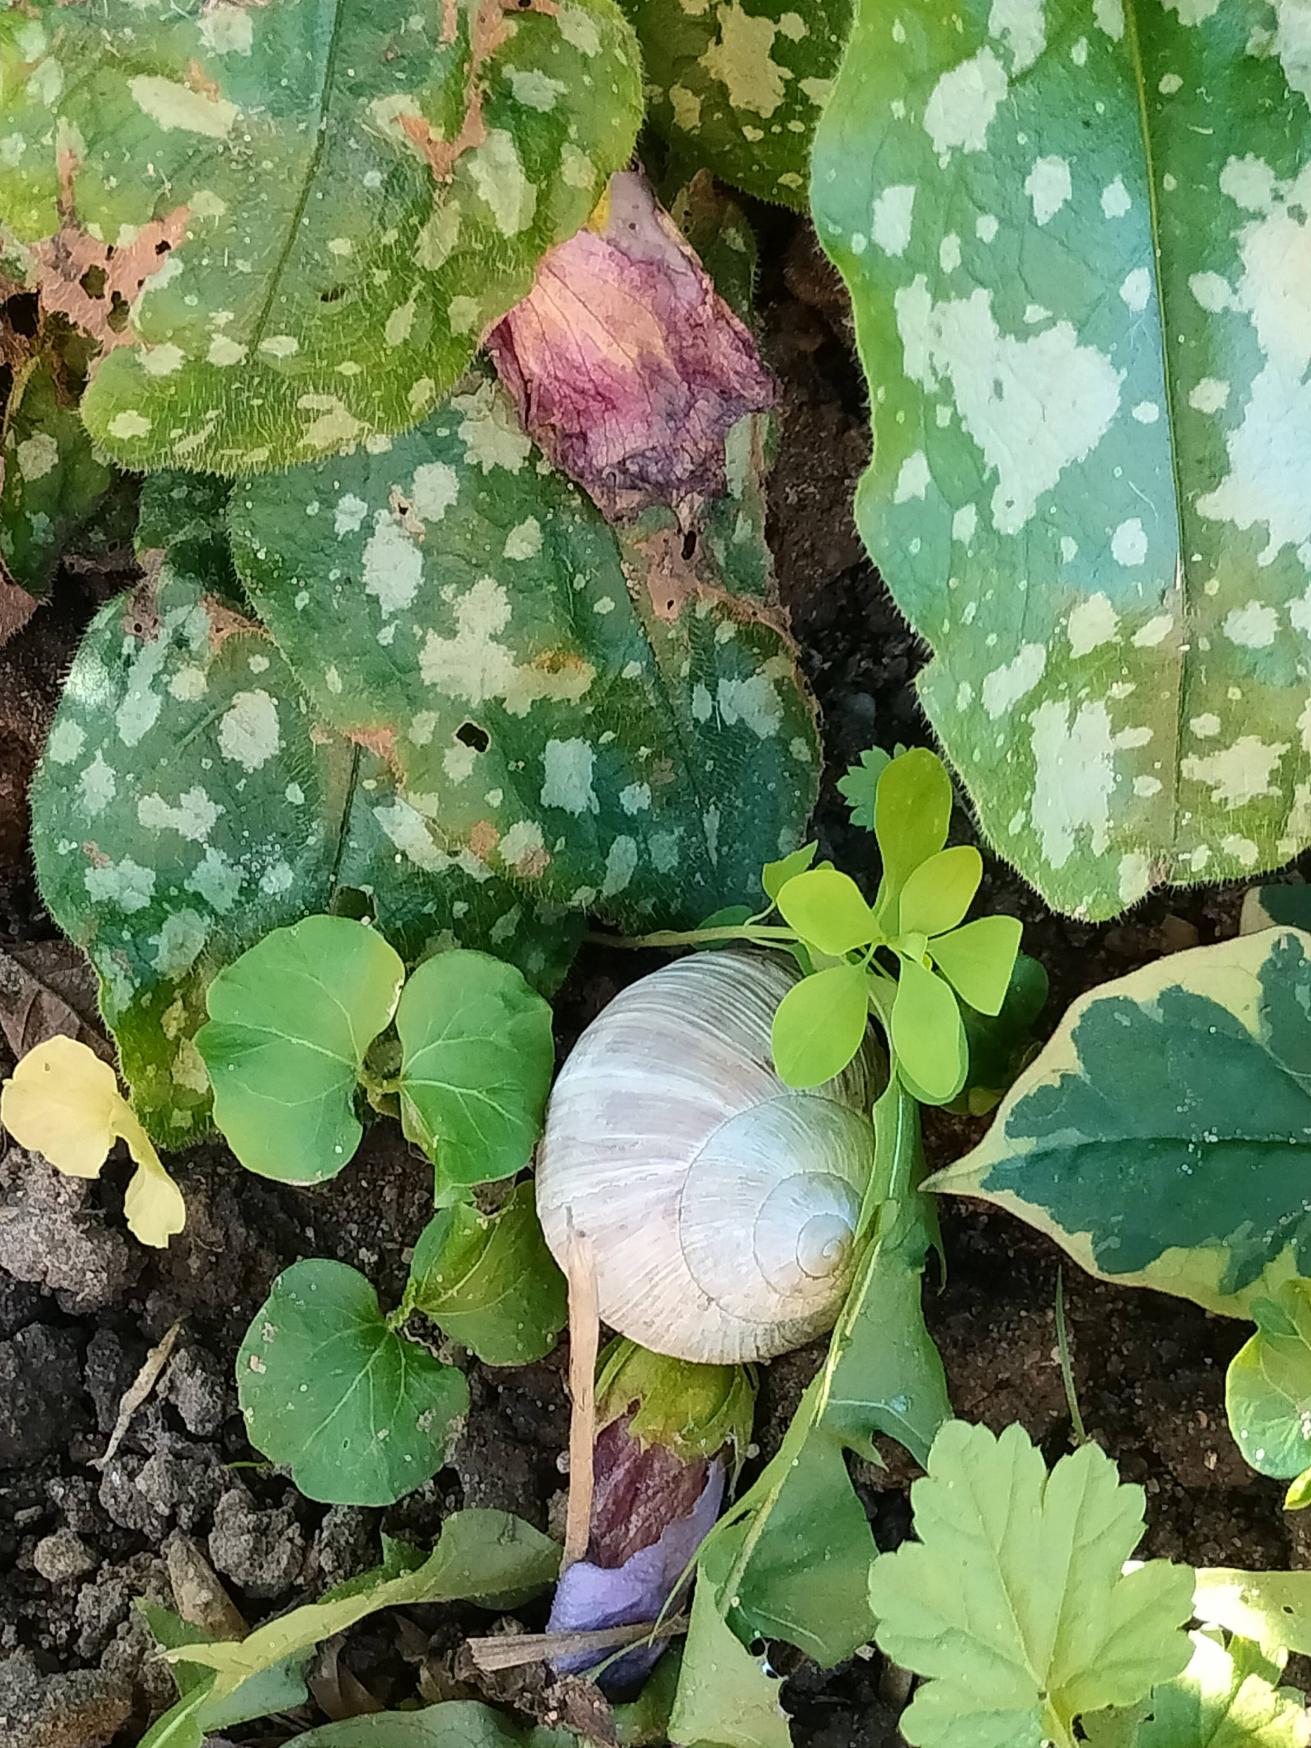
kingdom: Animalia
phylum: Mollusca
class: Gastropoda
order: Stylommatophora
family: Helicidae
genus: Helix
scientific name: Helix pomatia
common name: Vinbjergsnegl
